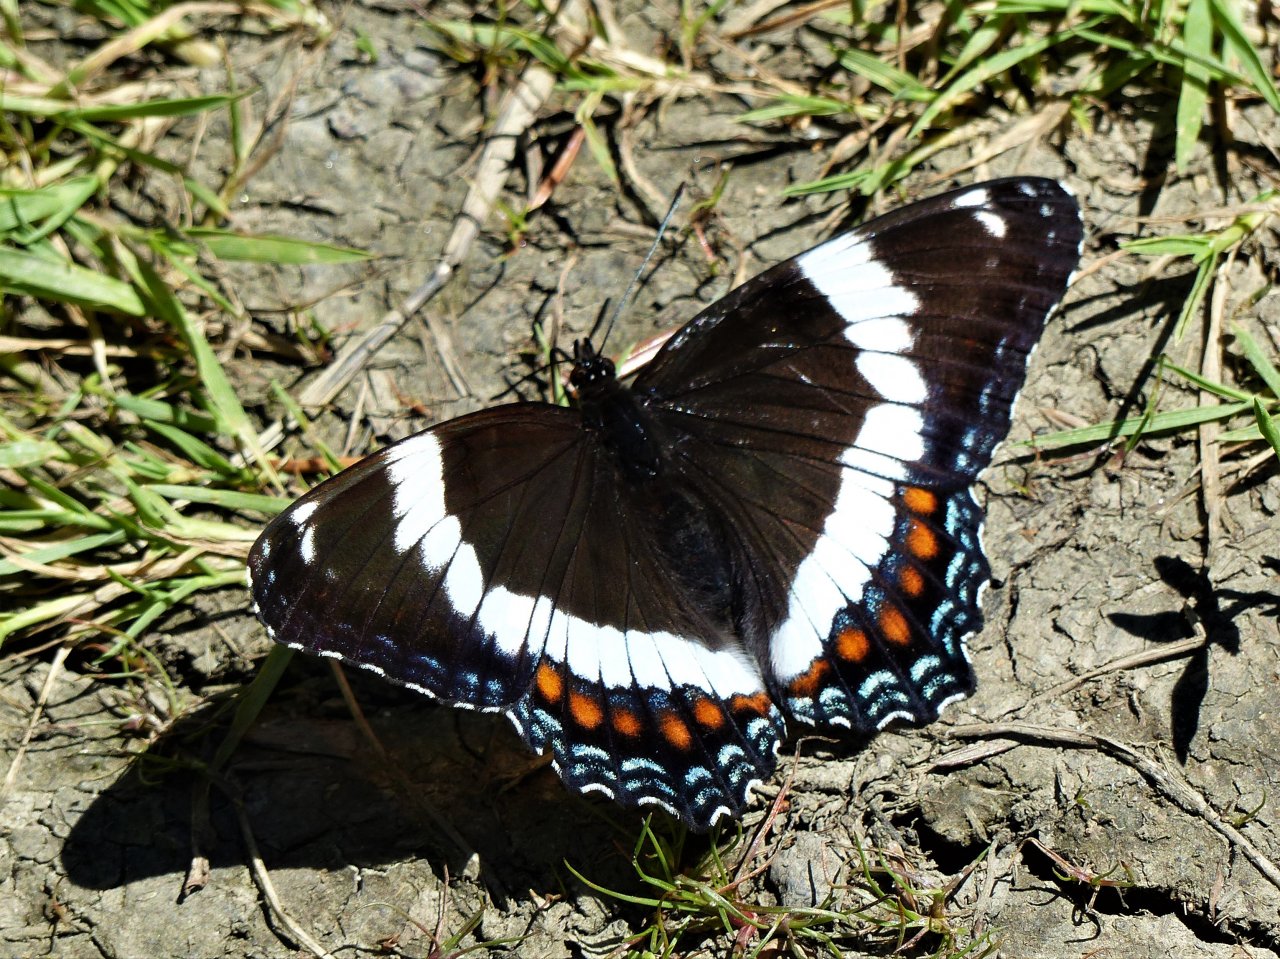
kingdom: Animalia
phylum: Arthropoda
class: Insecta
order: Lepidoptera
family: Nymphalidae
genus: Limenitis
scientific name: Limenitis arthemis
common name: Red-spotted Admiral
